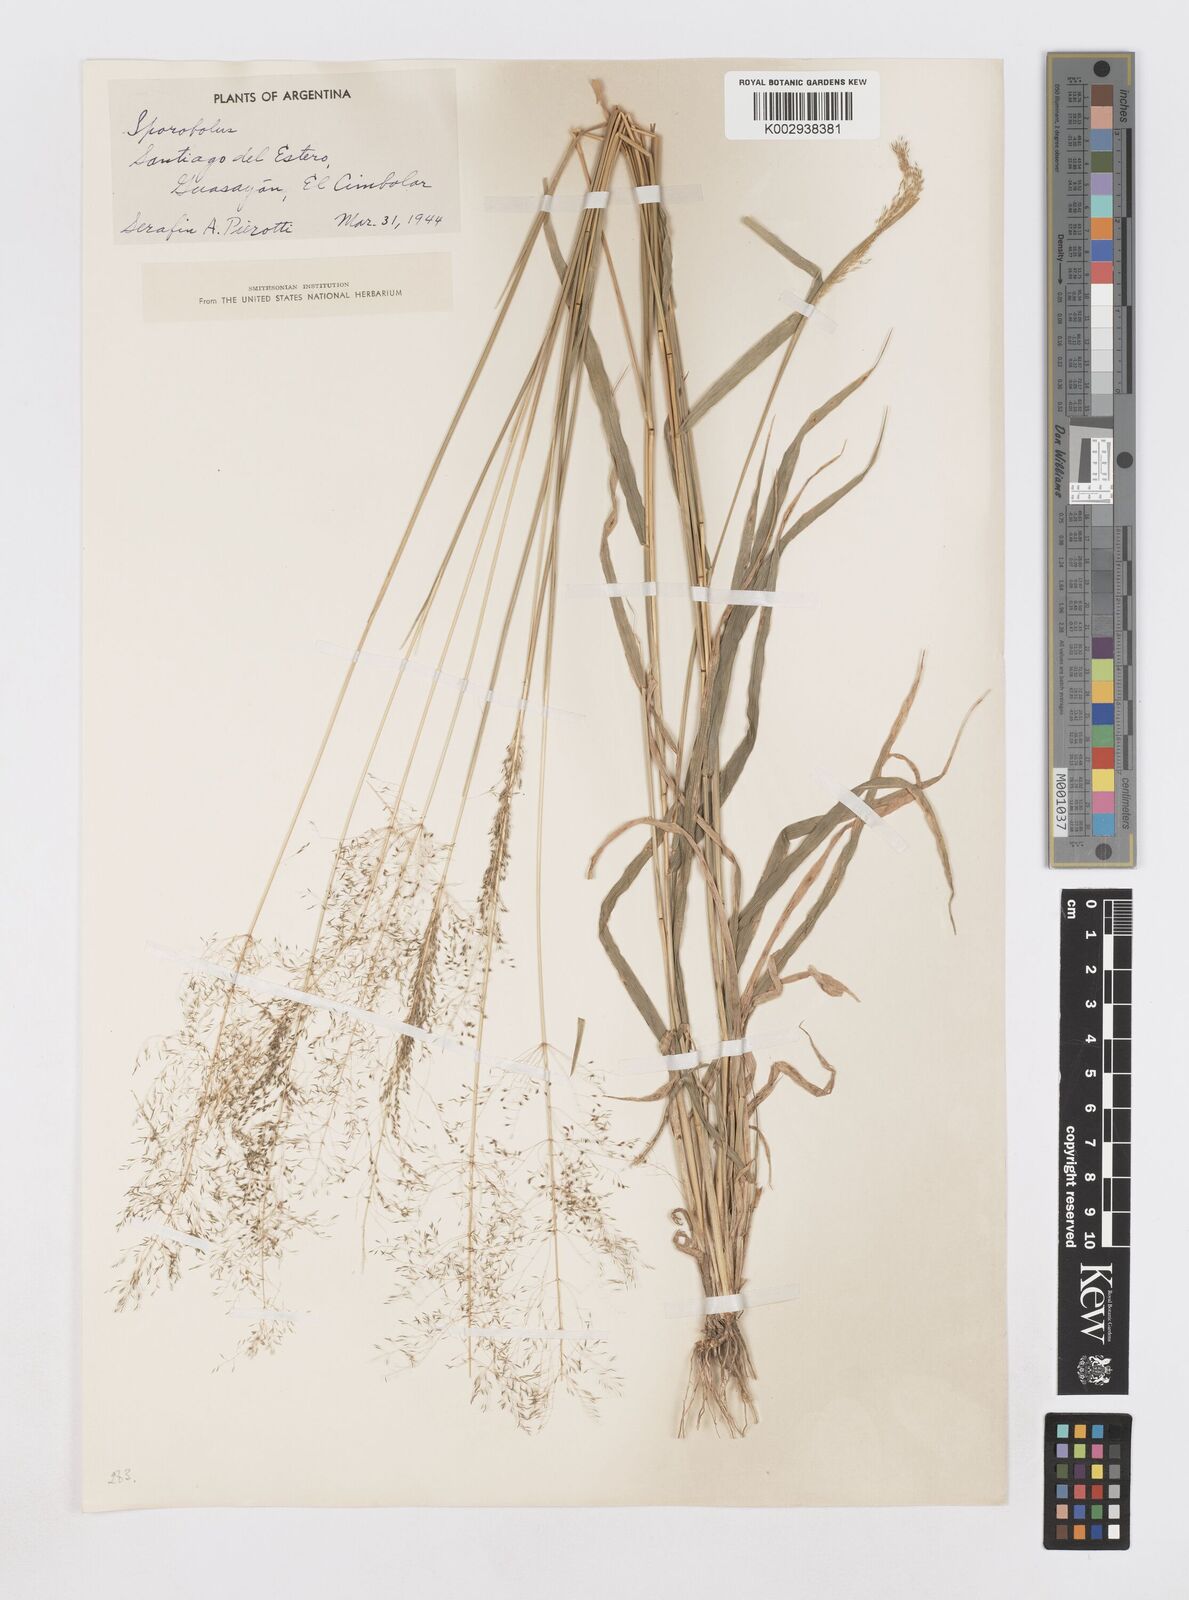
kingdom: Plantae
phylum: Tracheophyta
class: Liliopsida
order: Poales
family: Poaceae
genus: Sporobolus
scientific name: Sporobolus pyramidatus
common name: Whorled dropseed
